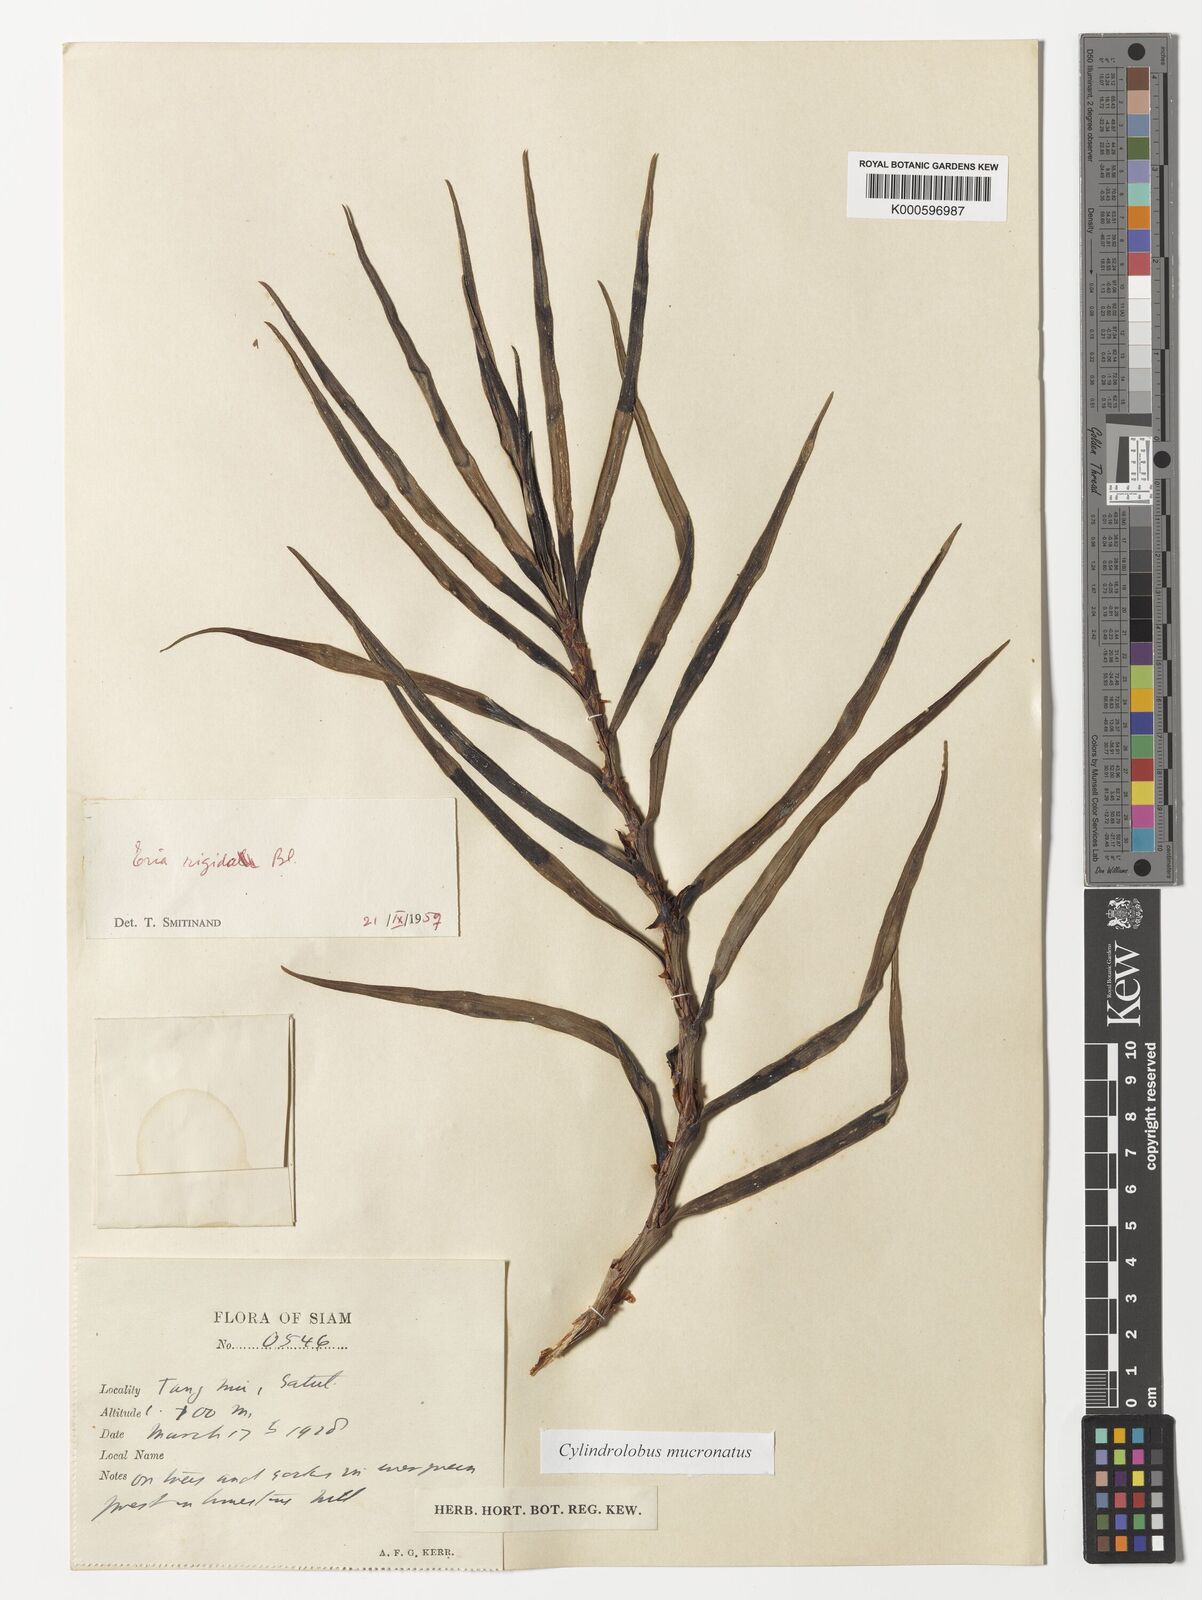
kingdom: Plantae
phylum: Tracheophyta
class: Liliopsida
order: Asparagales
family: Orchidaceae
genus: Cylindrolobus
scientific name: Cylindrolobus mucronatus
